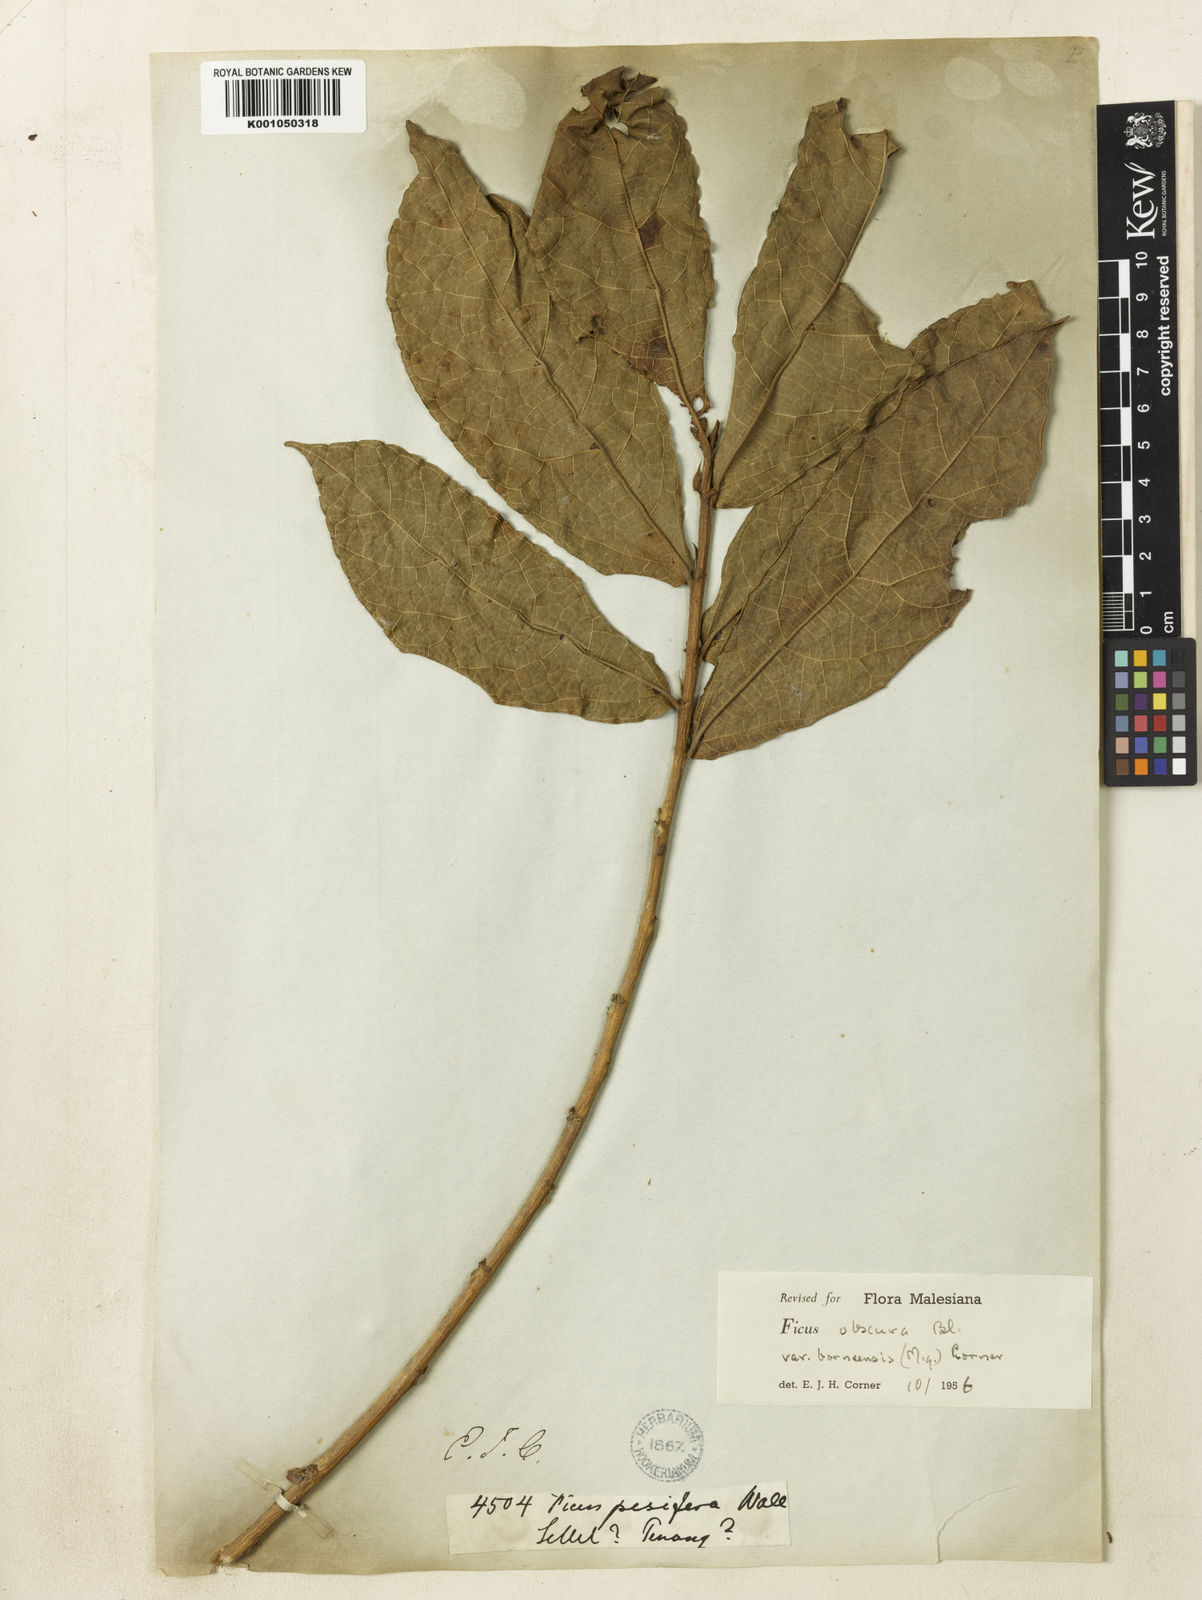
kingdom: Plantae
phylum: Tracheophyta
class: Magnoliopsida
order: Rosales
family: Moraceae
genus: Ficus
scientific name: Ficus obscura
